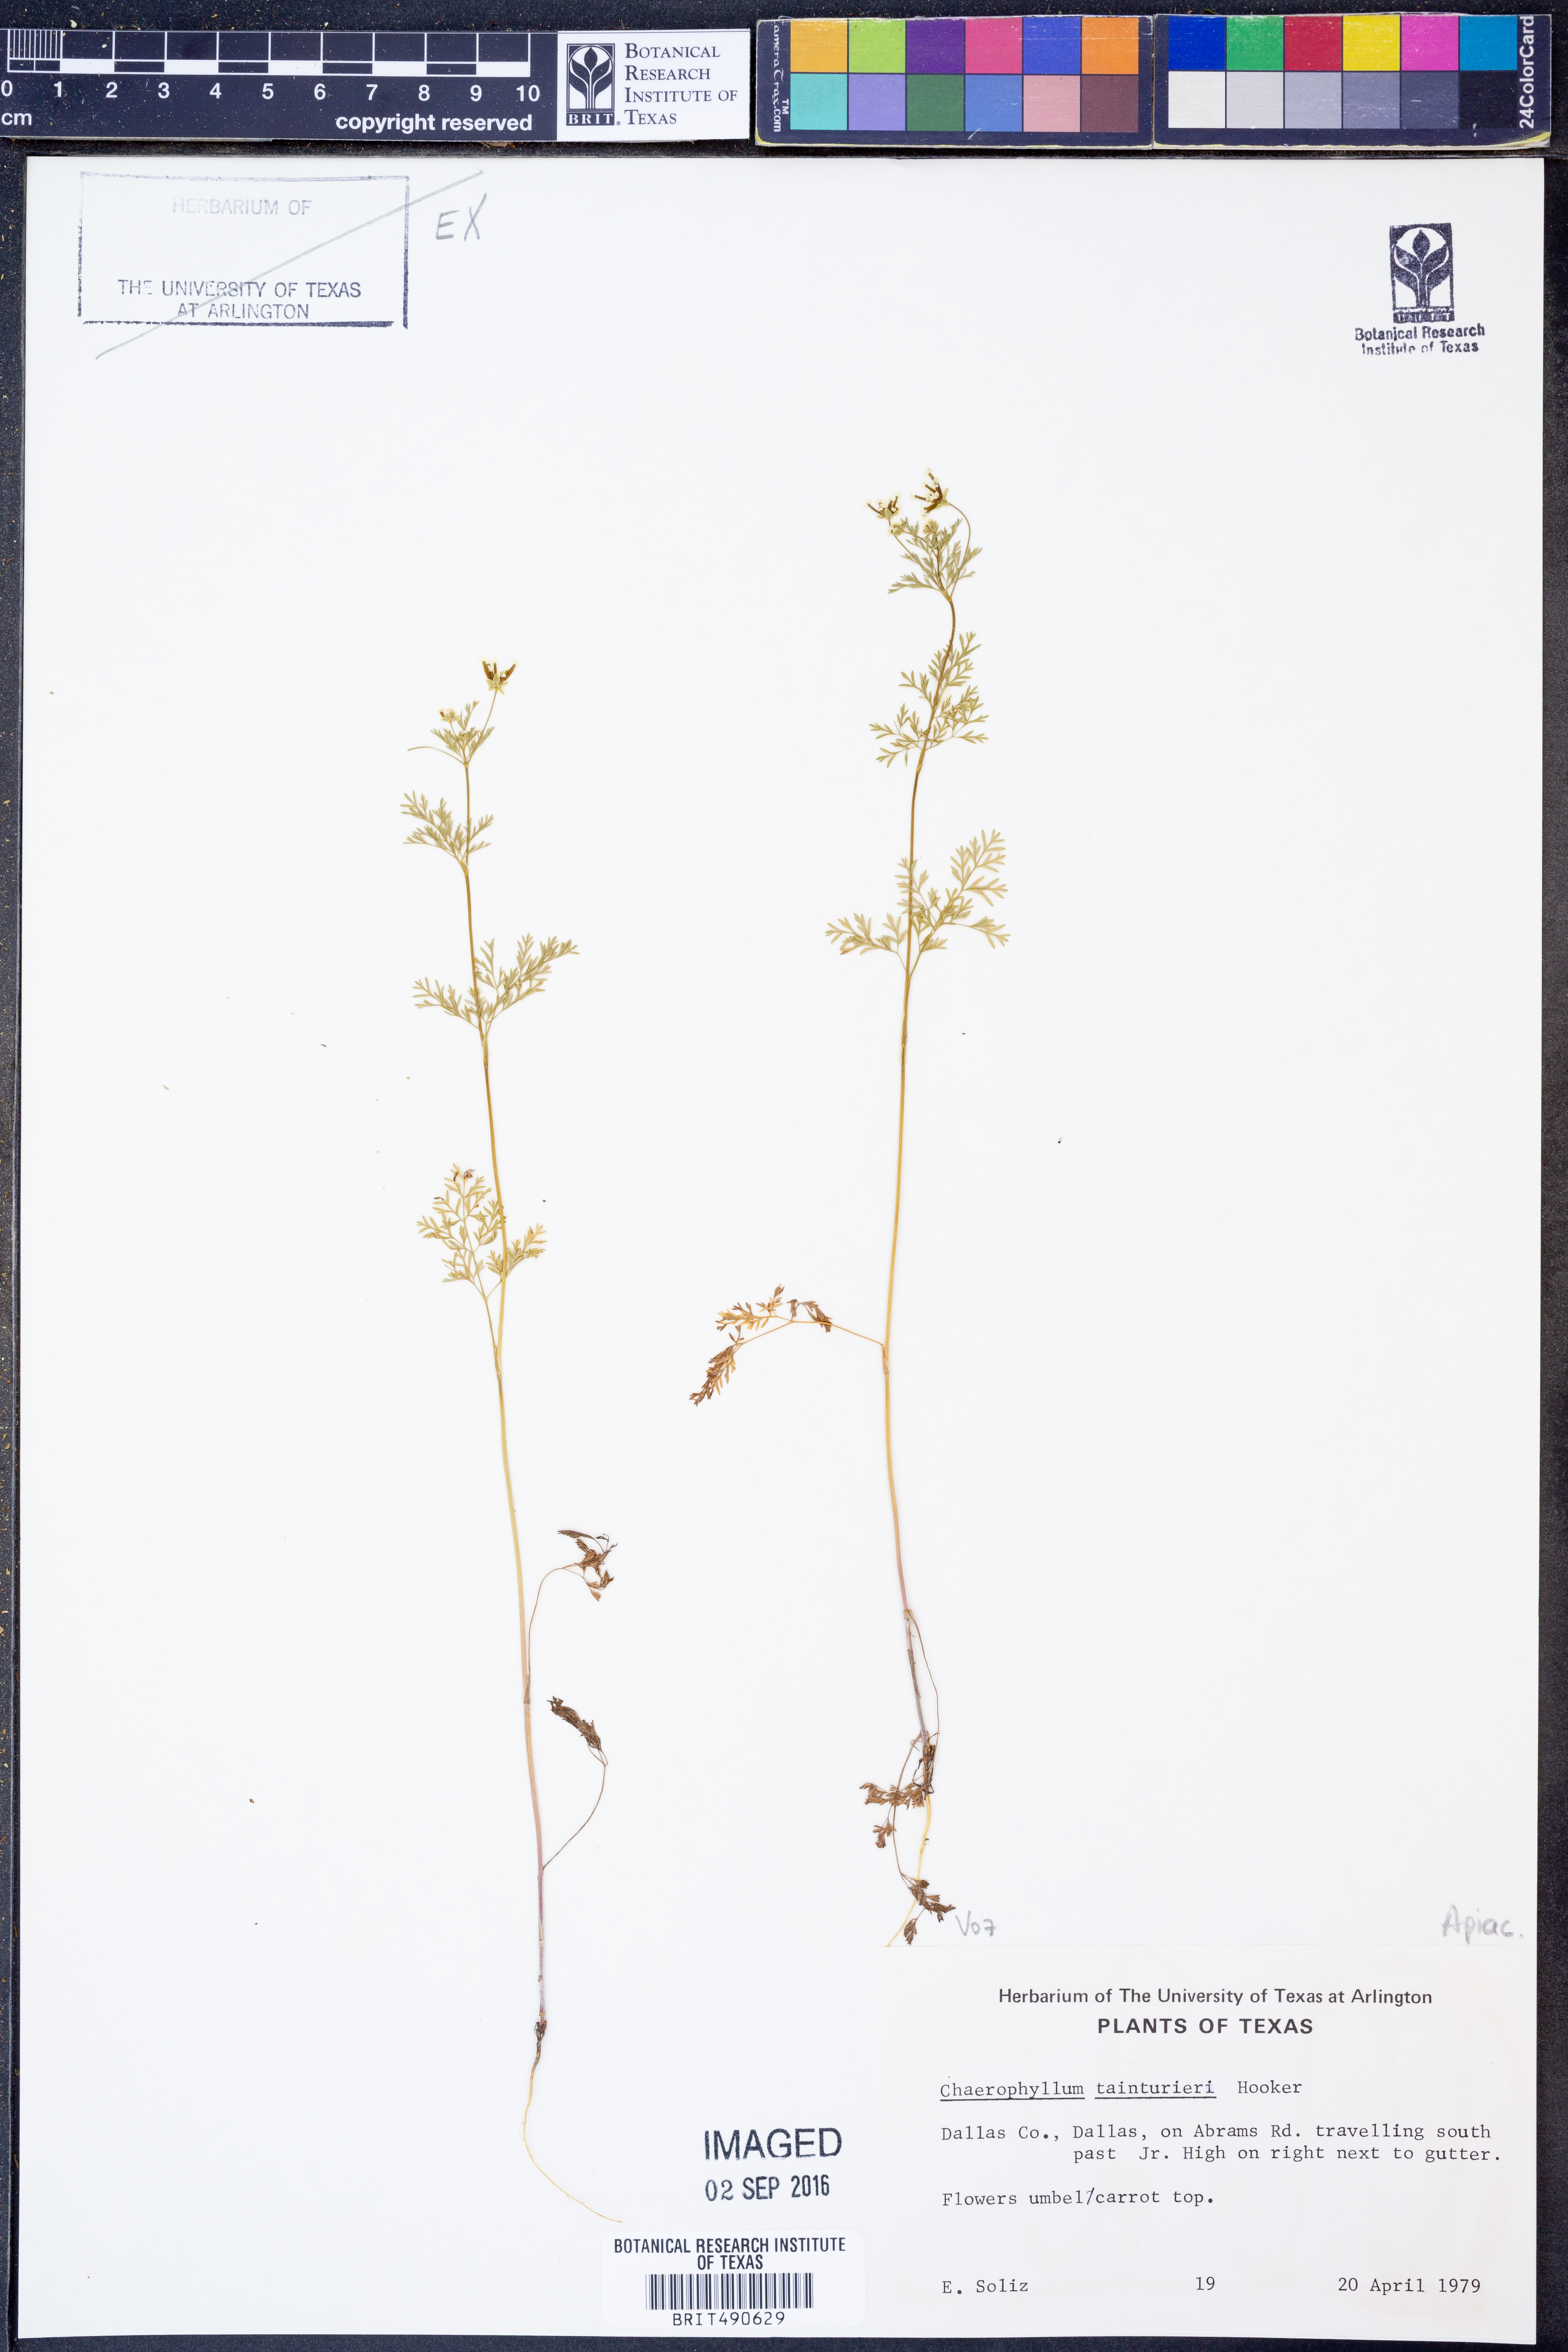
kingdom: Plantae
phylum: Tracheophyta
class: Magnoliopsida
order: Apiales
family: Apiaceae
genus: Chaerophyllum
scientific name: Chaerophyllum tainturieri
